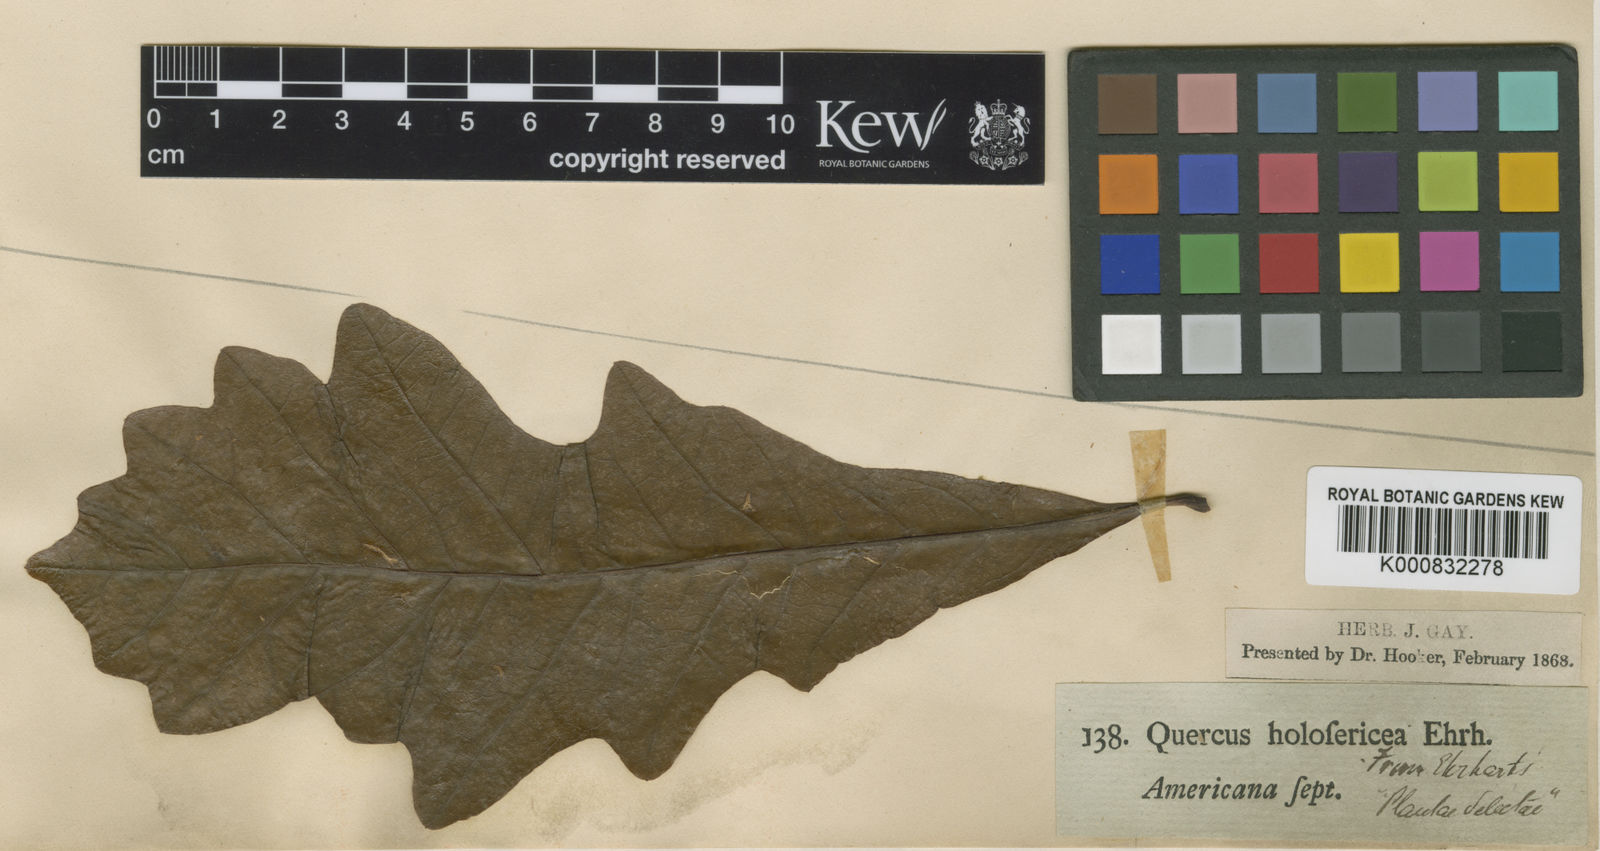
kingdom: Plantae
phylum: Tracheophyta
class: Magnoliopsida
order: Fagales
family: Fagaceae
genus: Quercus
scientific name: Quercus muehlenbergii
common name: Chinkapin oak
